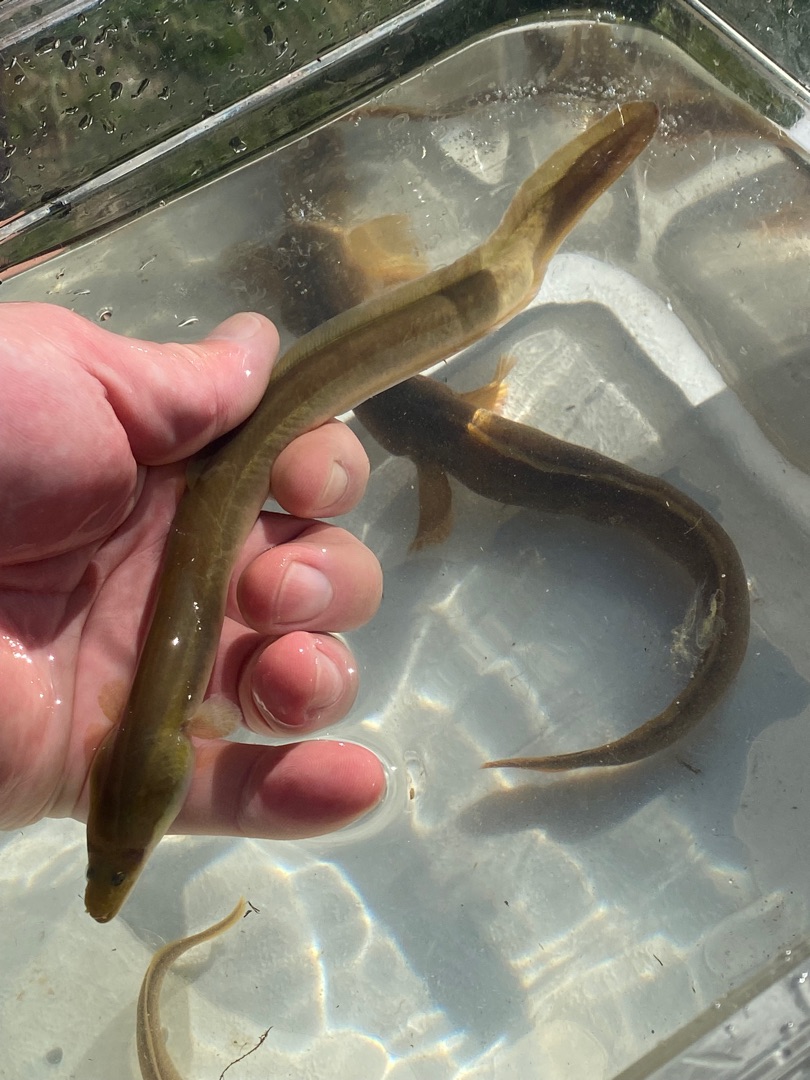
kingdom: Animalia
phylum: Chordata
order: Anguilliformes
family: Anguillidae
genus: Anguilla
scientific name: Anguilla anguilla
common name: Europæisk ål
